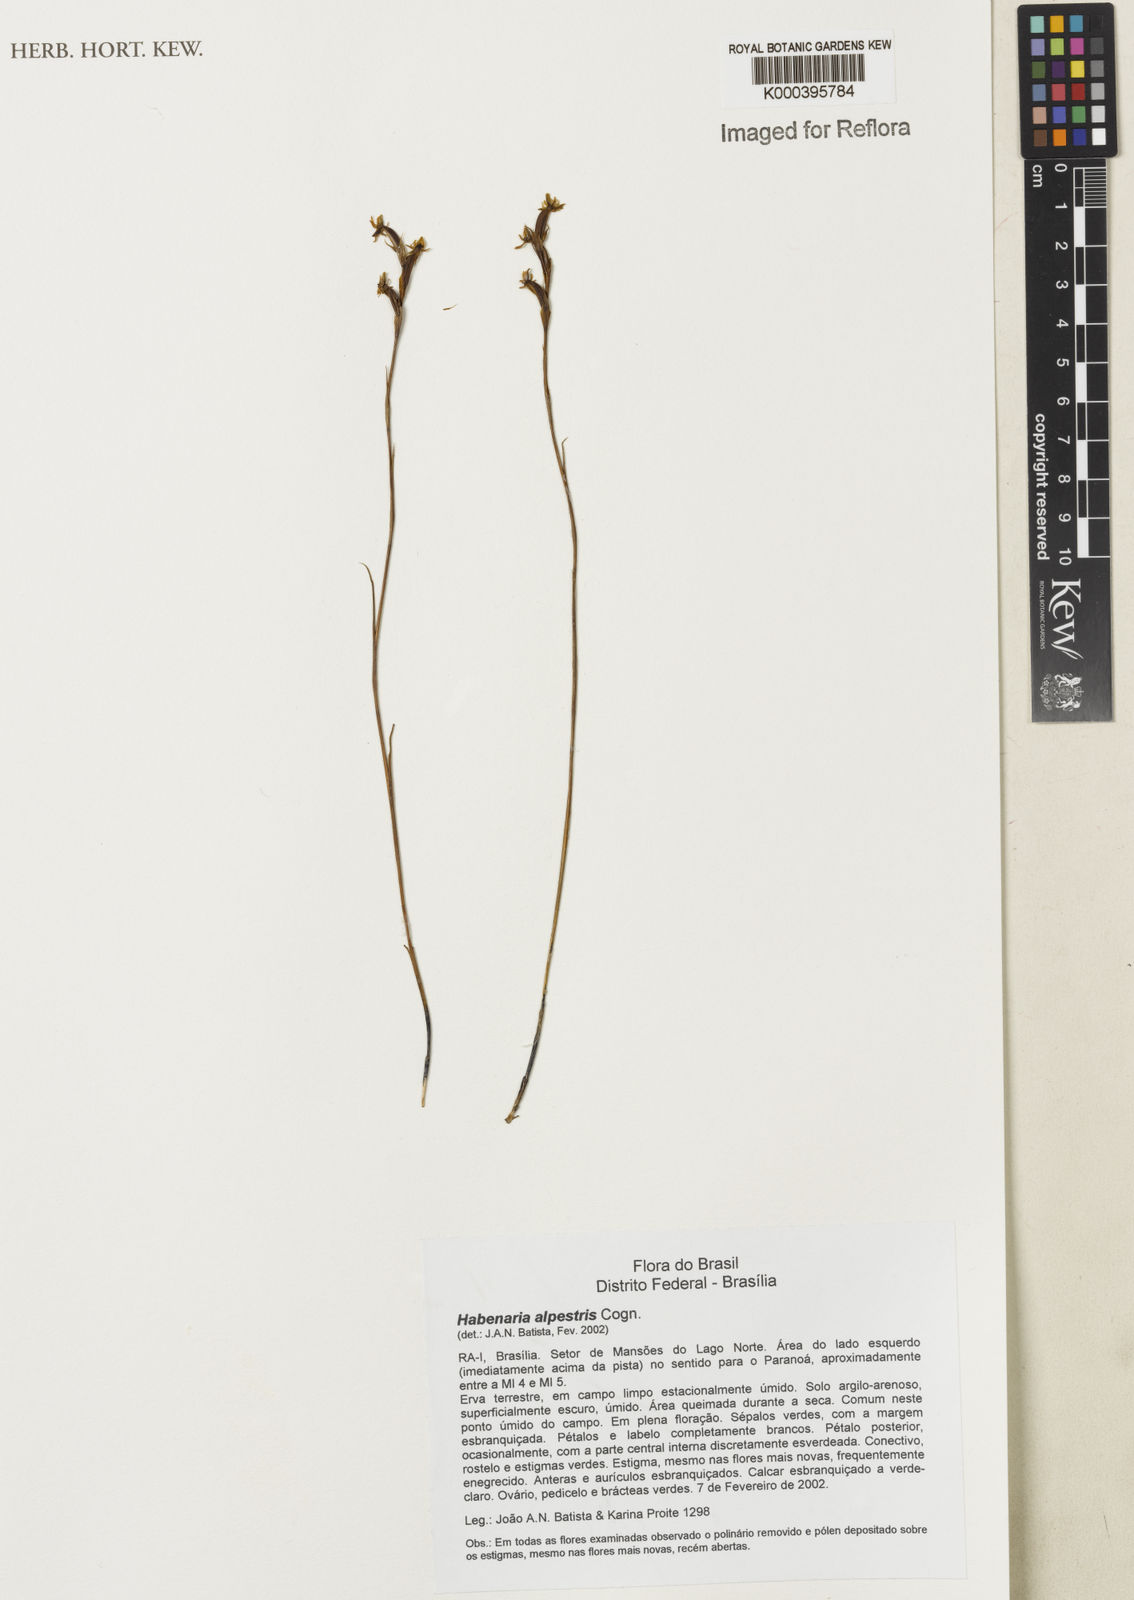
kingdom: Plantae
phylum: Tracheophyta
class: Liliopsida
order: Asparagales
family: Orchidaceae
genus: Habenaria
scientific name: Habenaria alpestris
